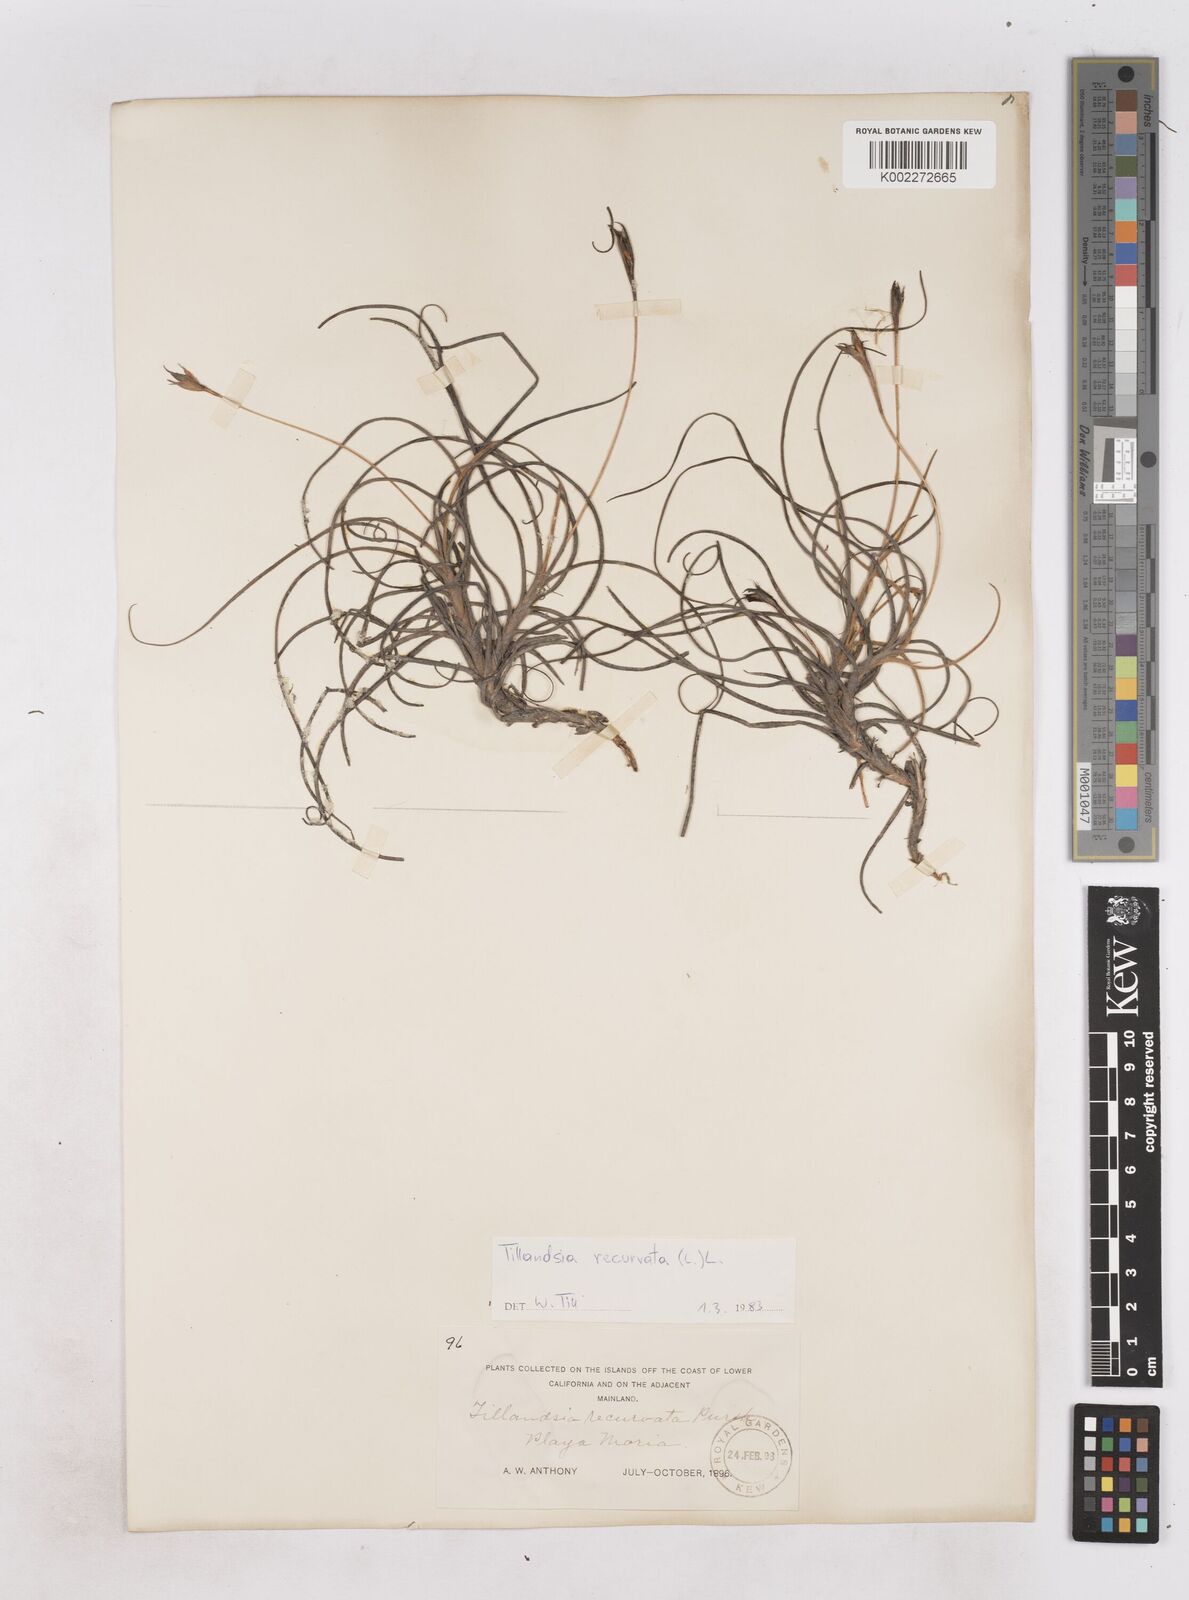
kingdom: Plantae
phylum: Tracheophyta
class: Liliopsida
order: Poales
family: Bromeliaceae
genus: Tillandsia
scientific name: Tillandsia recurvata
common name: Small ballmoss
